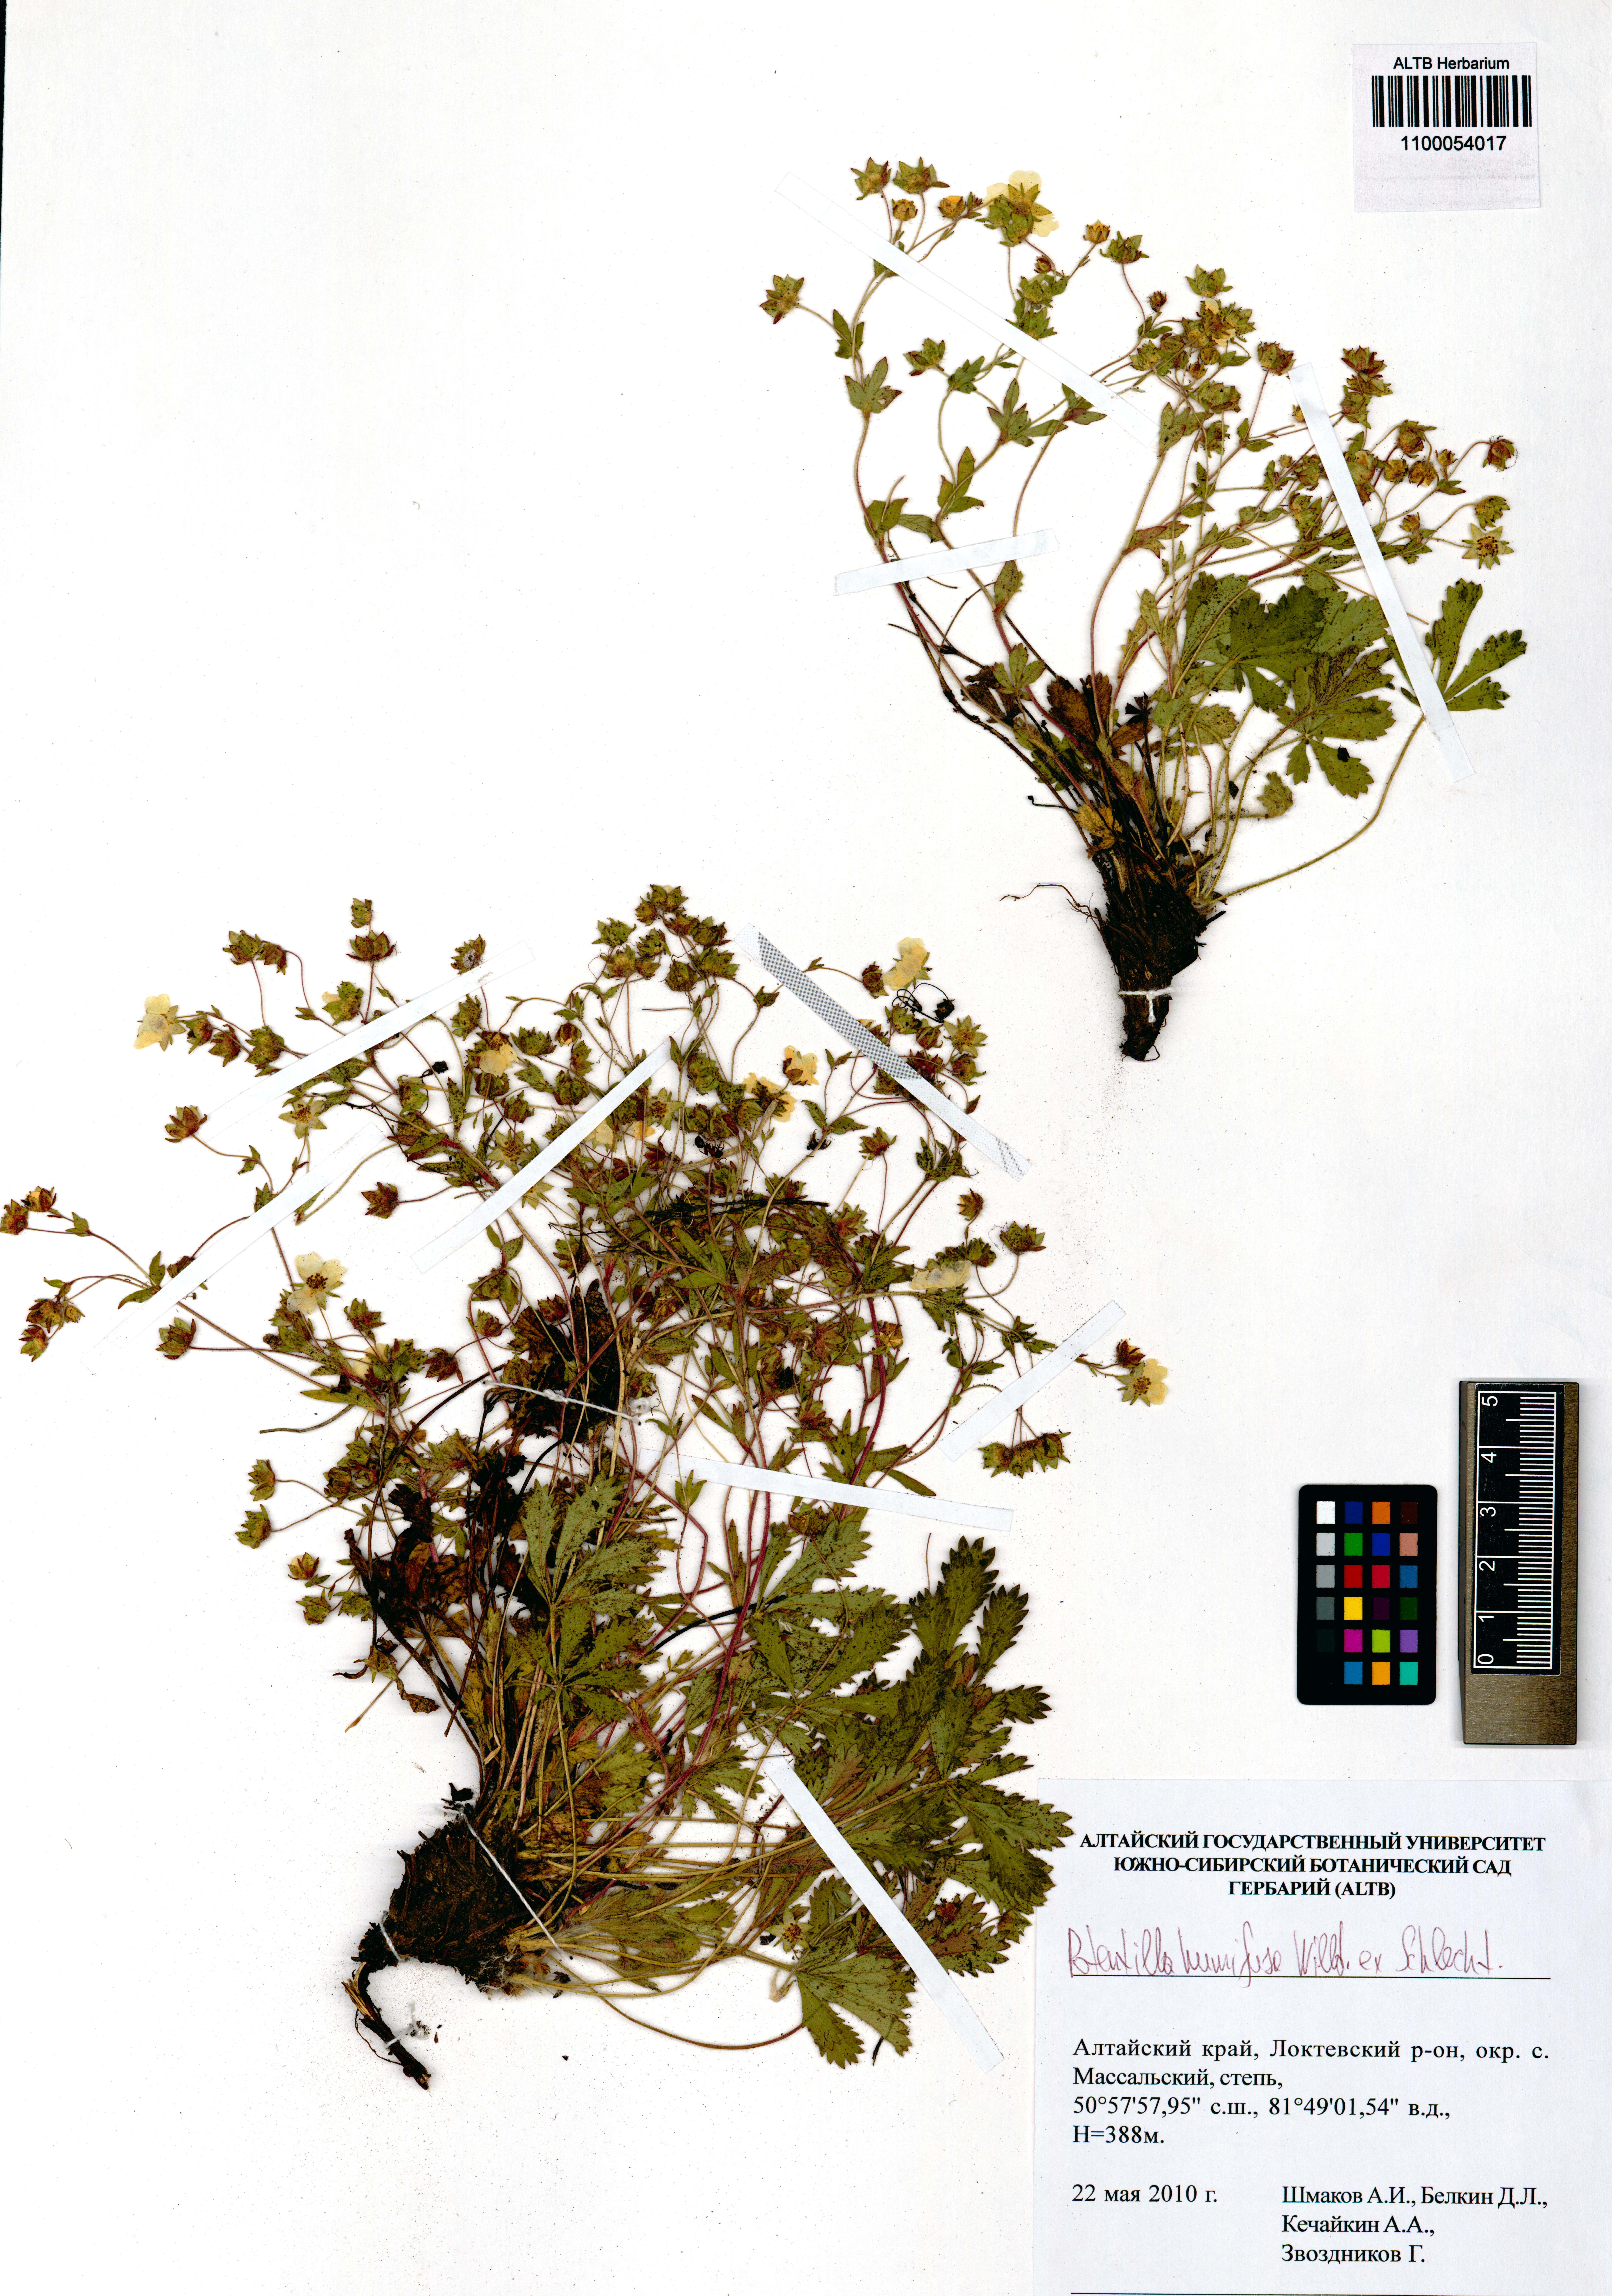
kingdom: Plantae
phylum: Tracheophyta
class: Magnoliopsida
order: Rosales
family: Rosaceae
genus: Potentilla
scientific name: Potentilla humifusa
